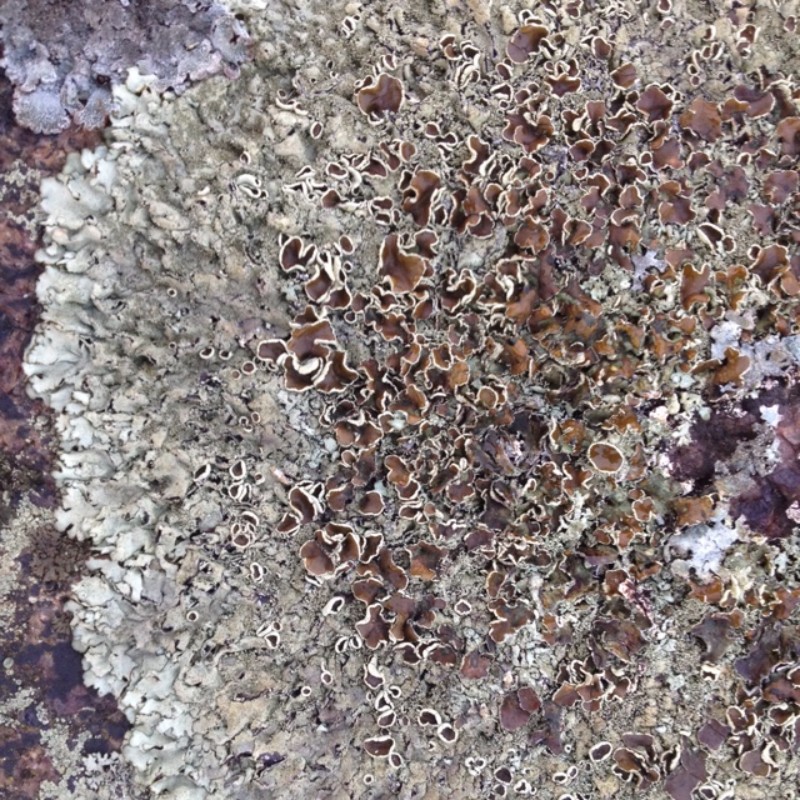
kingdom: Fungi
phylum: Ascomycota
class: Lecanoromycetes
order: Lecanorales
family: Parmeliaceae
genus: Xanthoparmelia
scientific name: Xanthoparmelia conspersa
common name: messing-skållav
